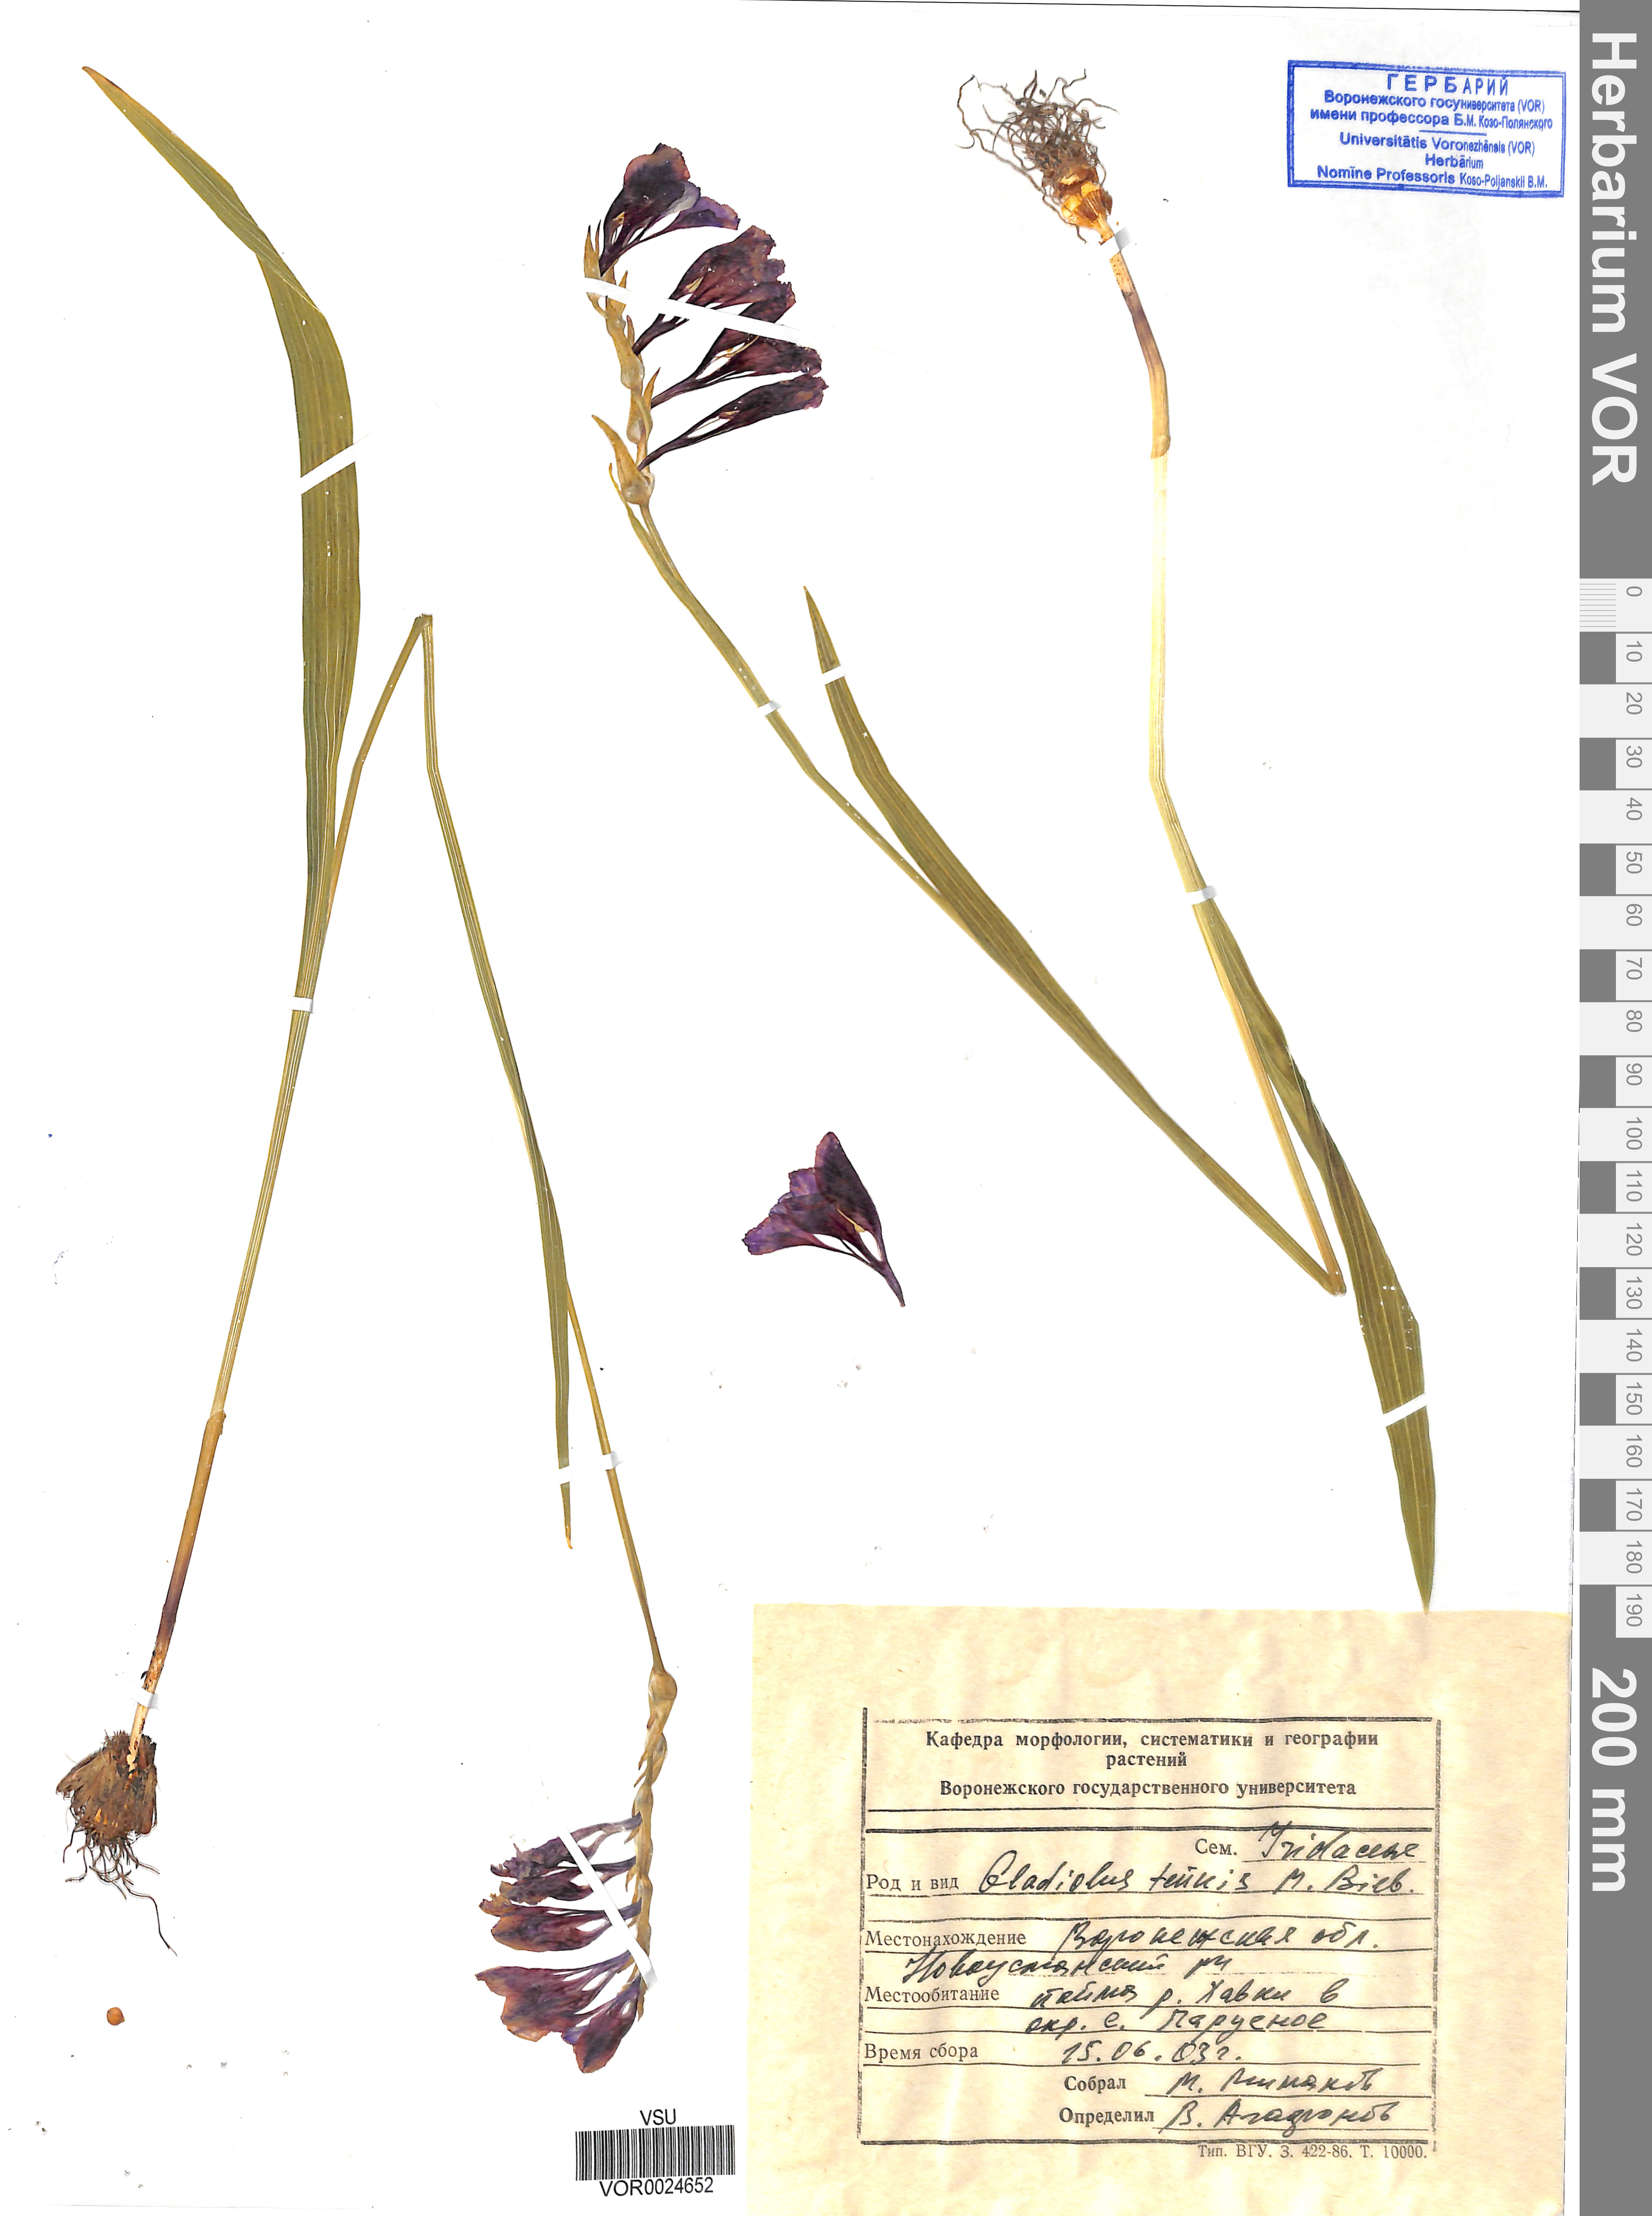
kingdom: Plantae
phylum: Tracheophyta
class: Liliopsida
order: Asparagales
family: Iridaceae
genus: Gladiolus
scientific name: Gladiolus tenuis
